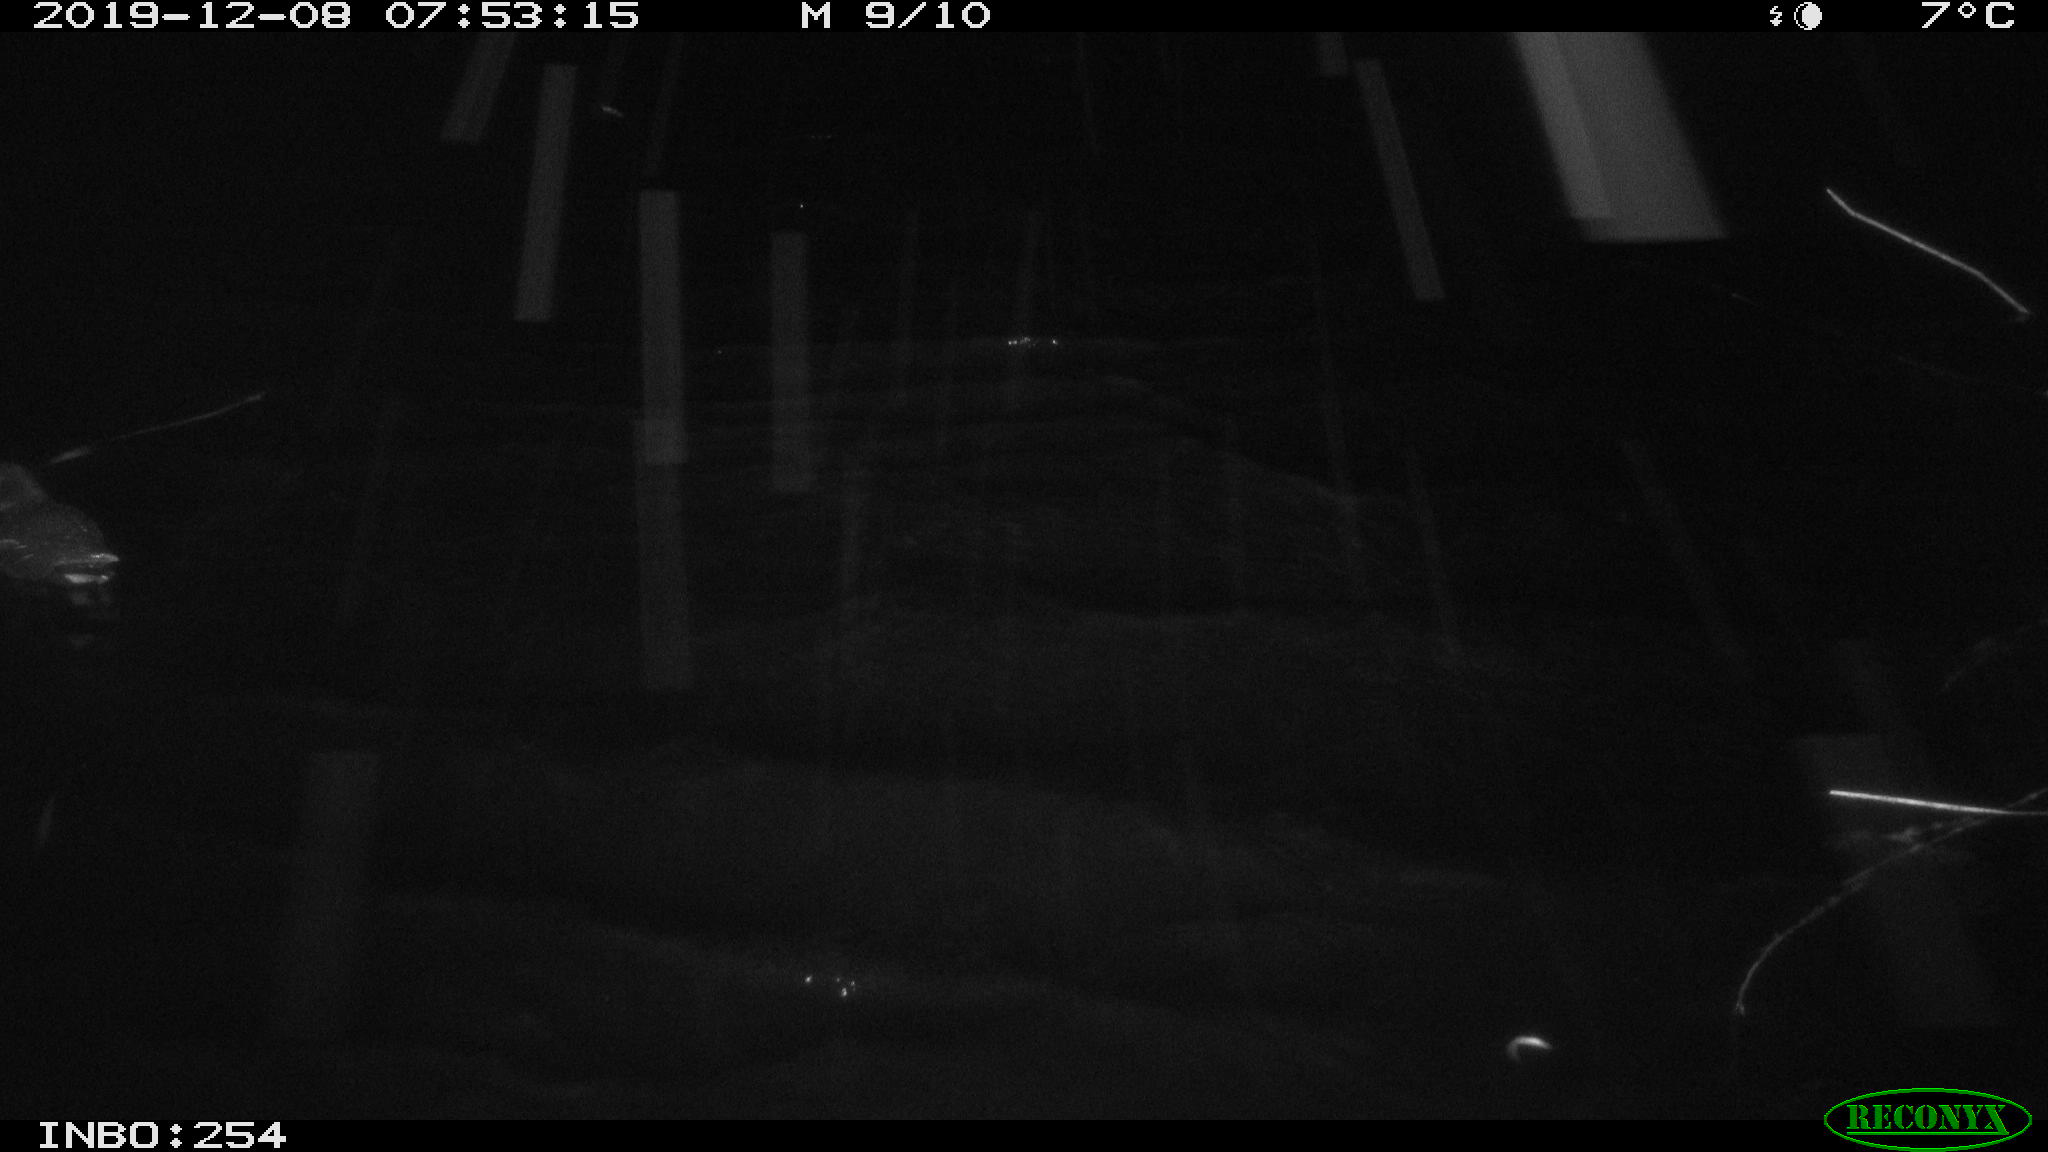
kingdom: Animalia
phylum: Chordata
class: Aves
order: Gruiformes
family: Rallidae
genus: Gallinula
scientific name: Gallinula chloropus
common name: Common moorhen
